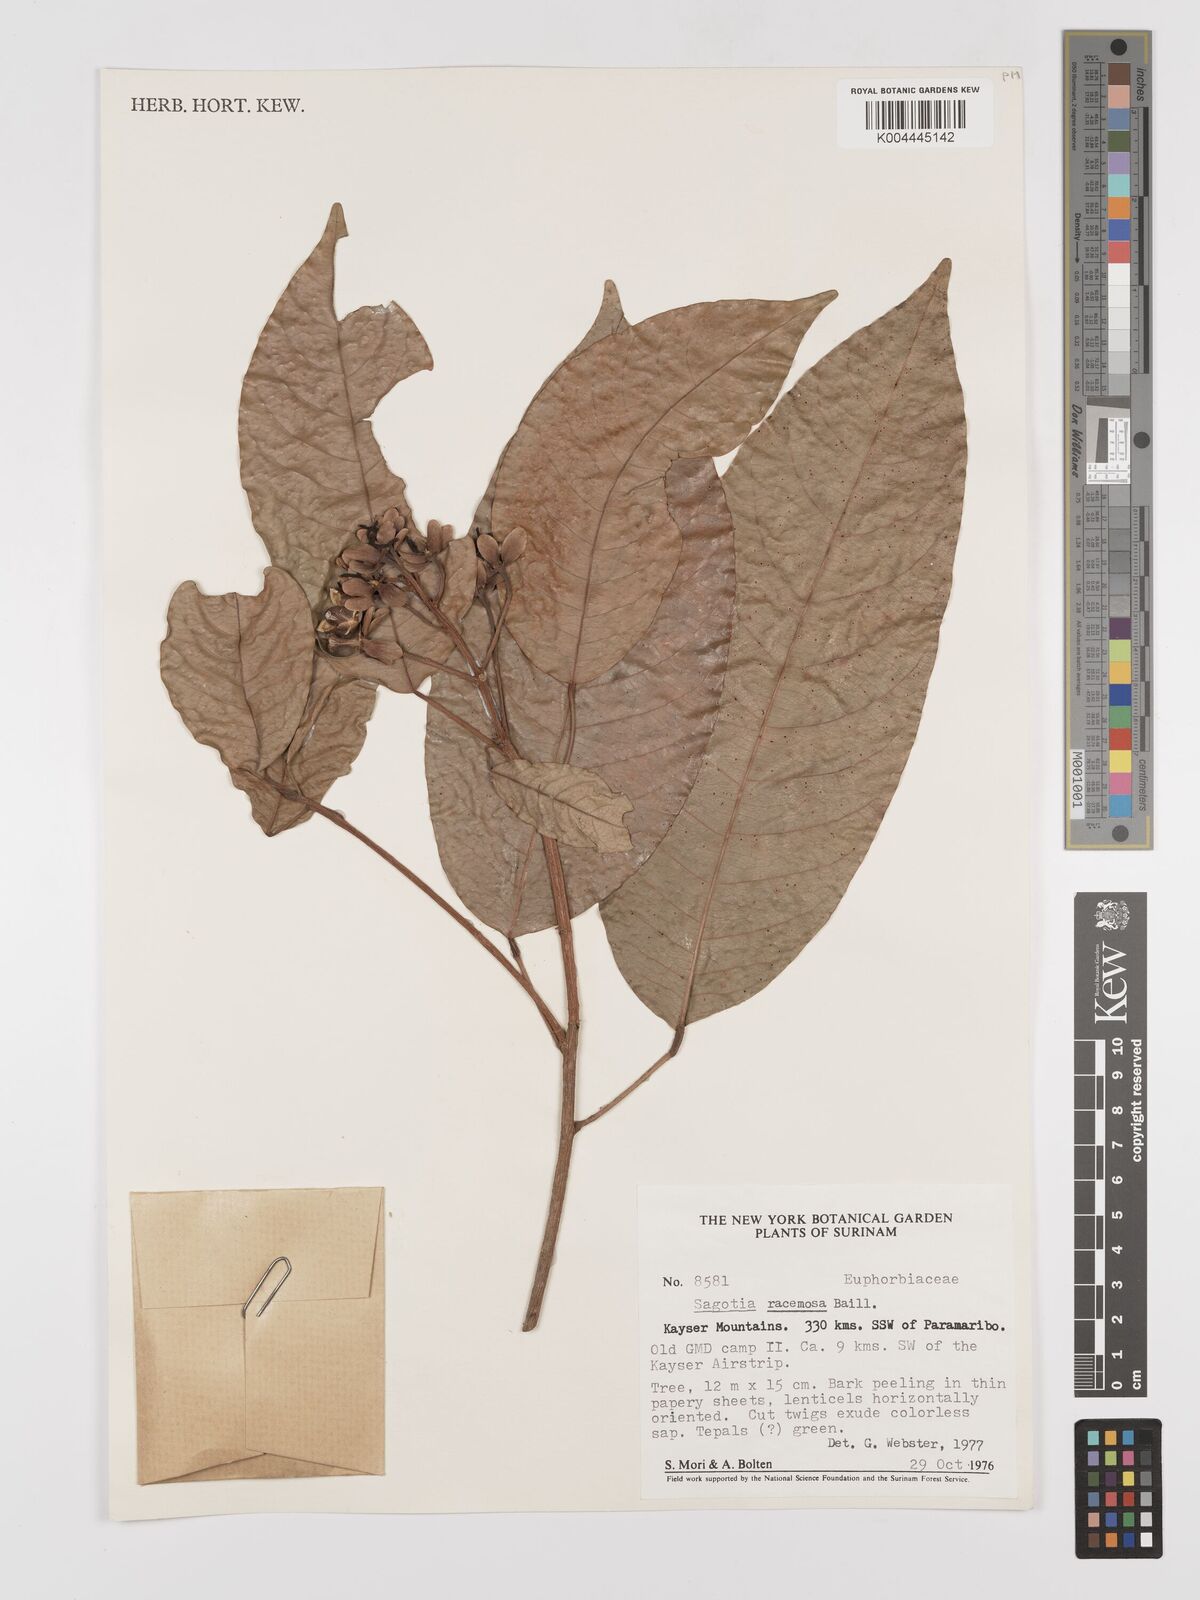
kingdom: Plantae
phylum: Tracheophyta
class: Magnoliopsida
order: Malpighiales
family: Euphorbiaceae
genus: Sagotia
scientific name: Sagotia racemosa
